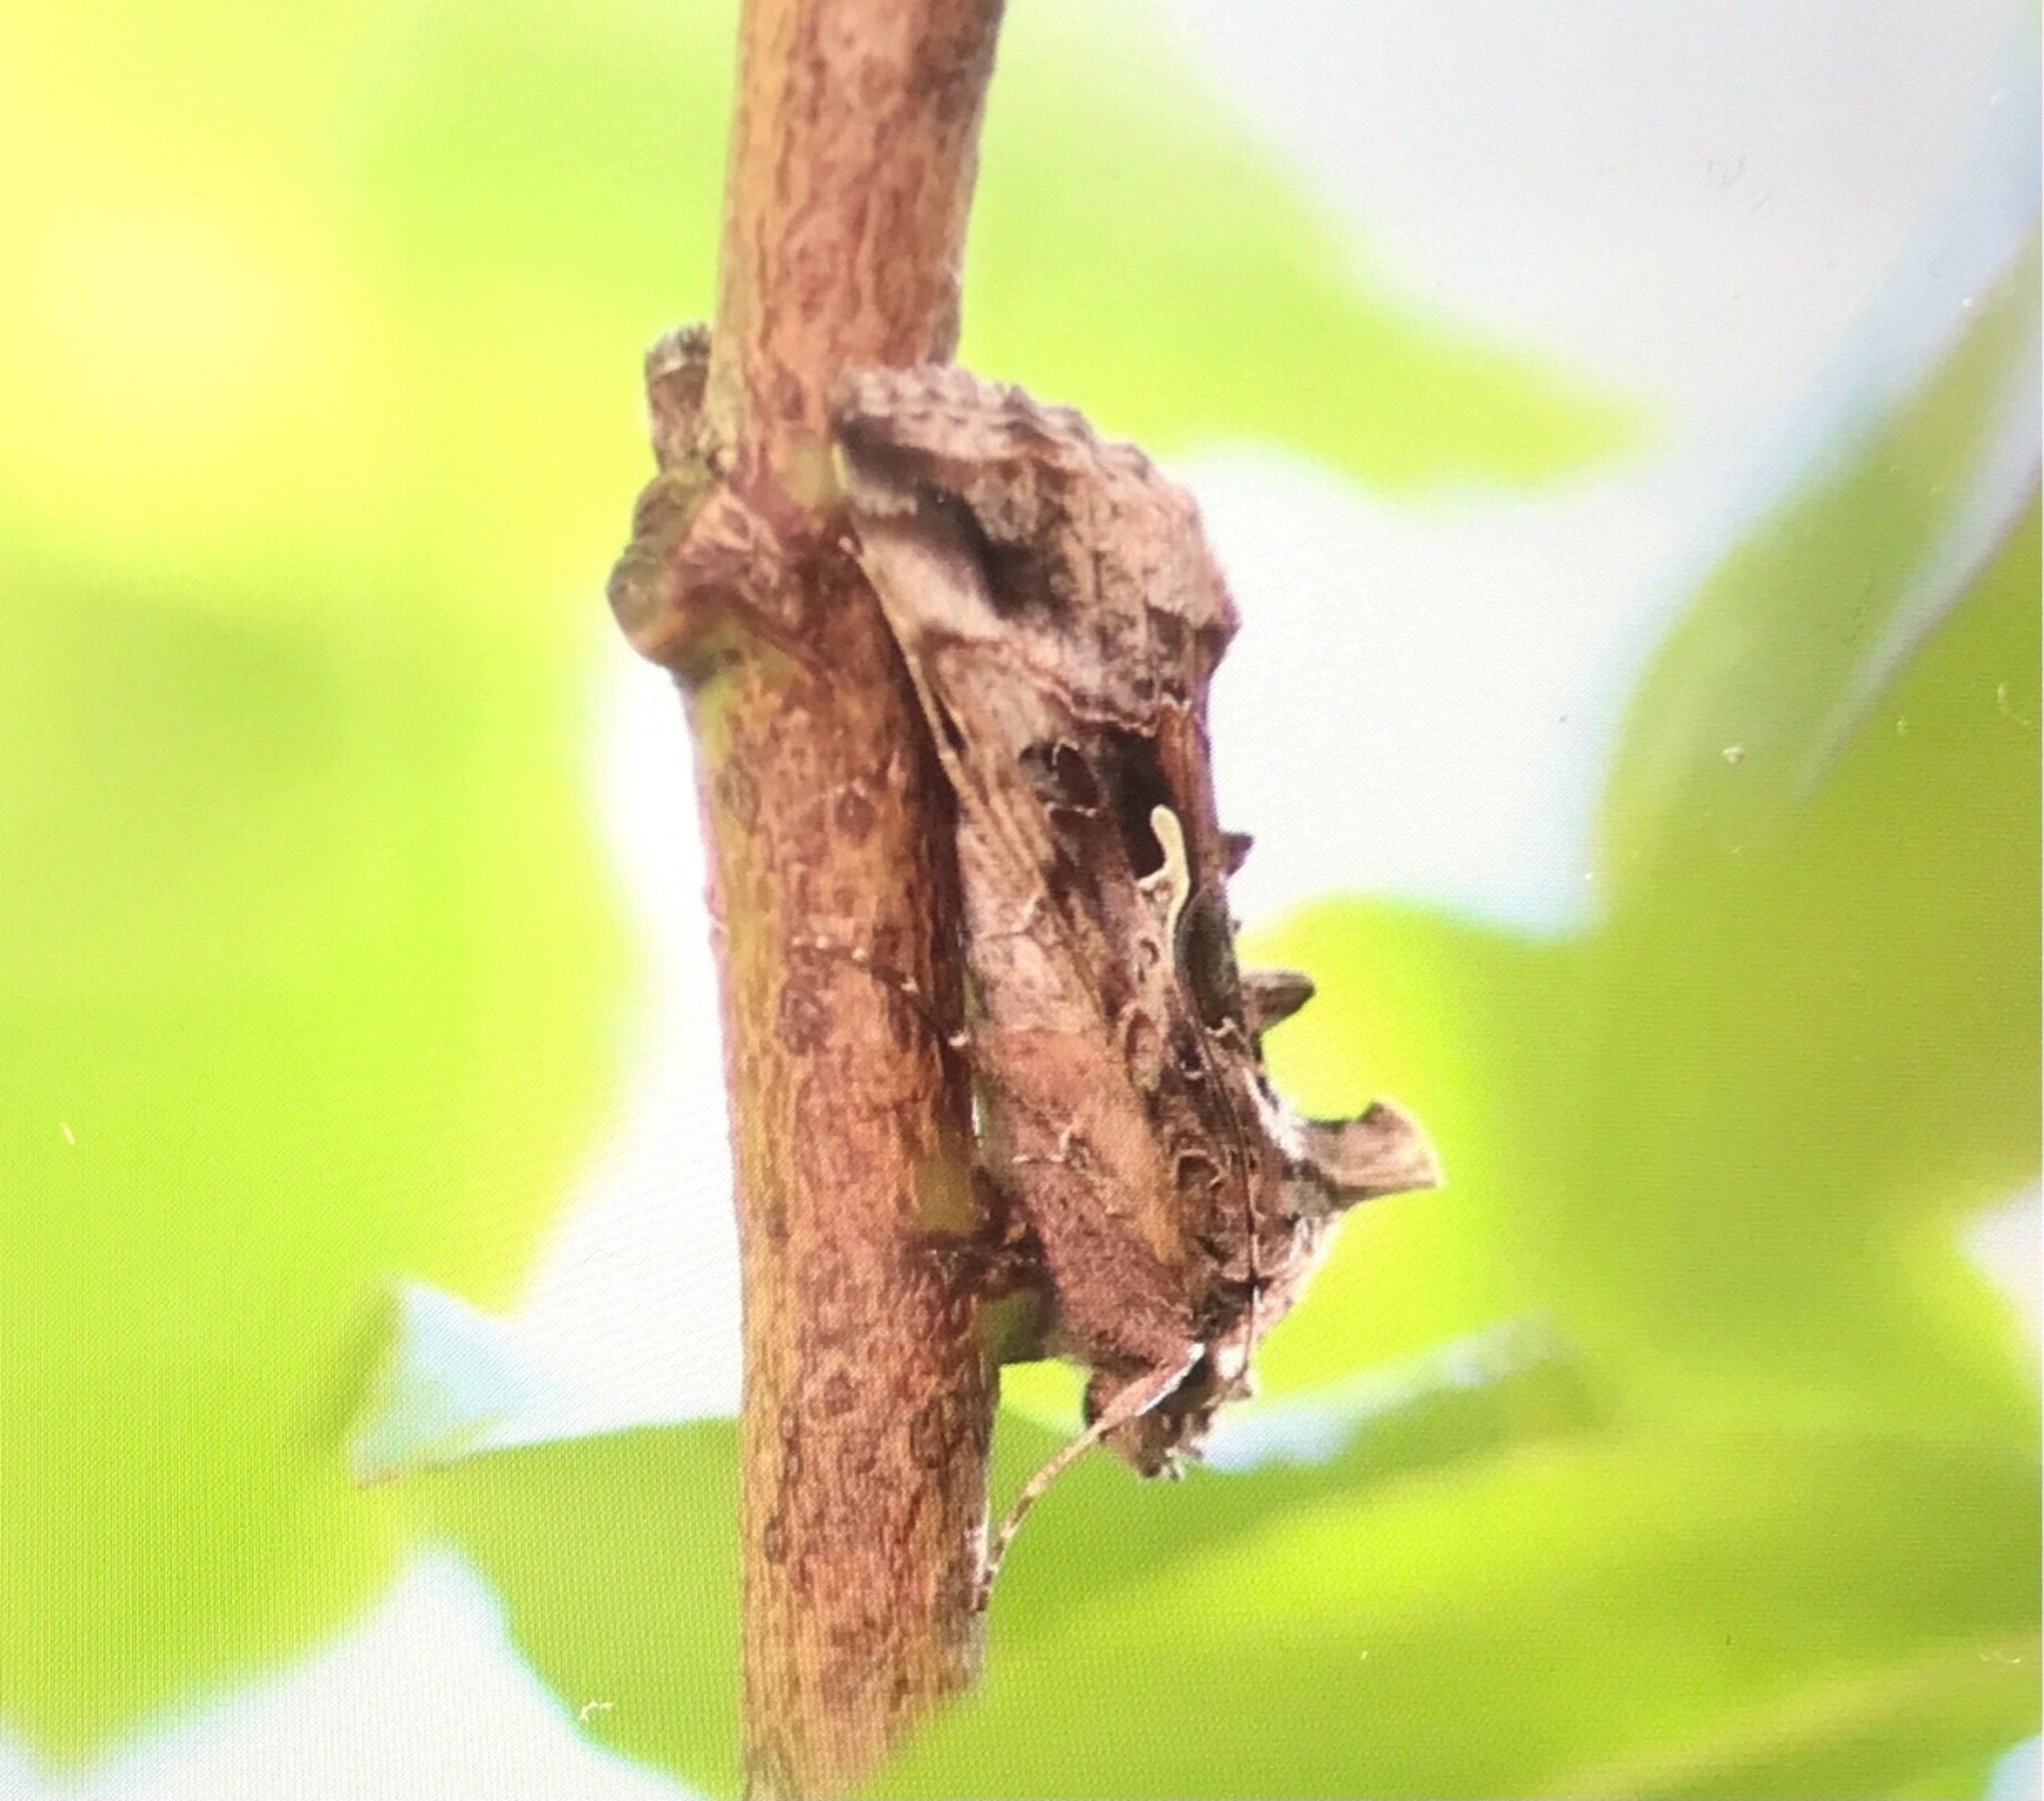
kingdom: Animalia
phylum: Arthropoda
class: Insecta
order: Lepidoptera
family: Noctuidae
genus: Autographa
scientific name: Autographa gamma
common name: Gammaugle
